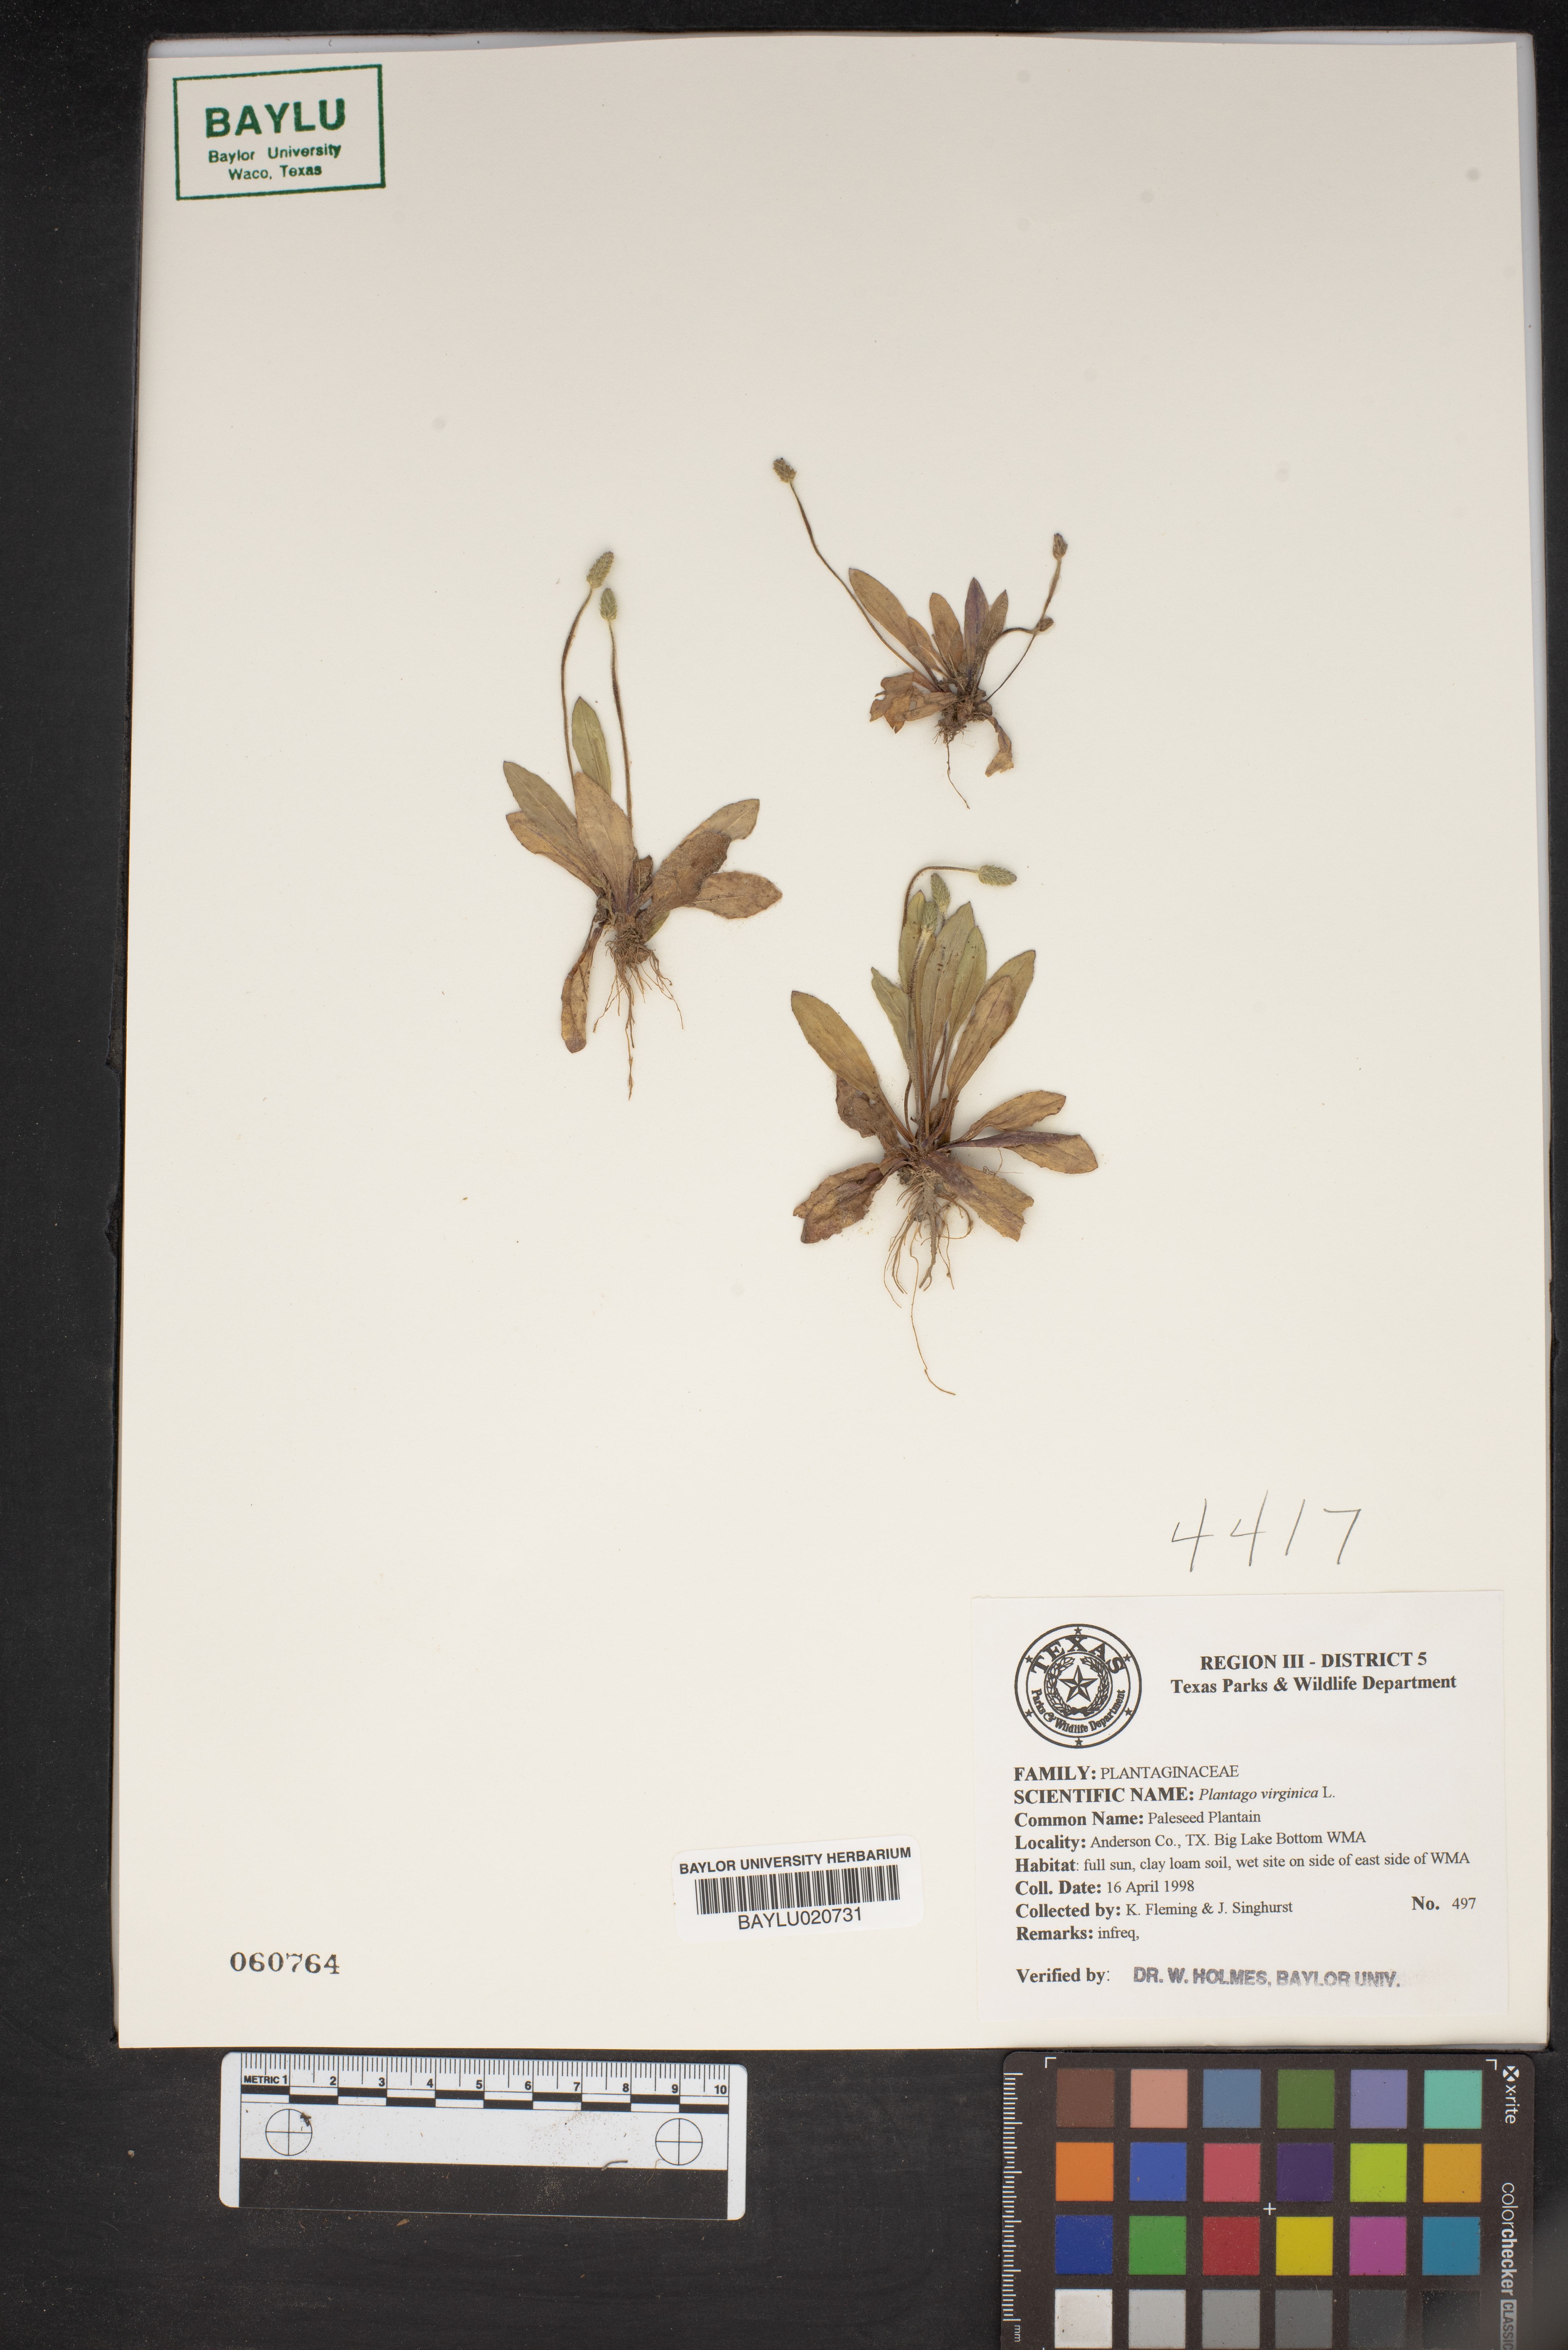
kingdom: Plantae
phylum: Tracheophyta
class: Magnoliopsida
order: Lamiales
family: Plantaginaceae
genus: Plantago
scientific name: Plantago virginica
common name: Hoary plantain
